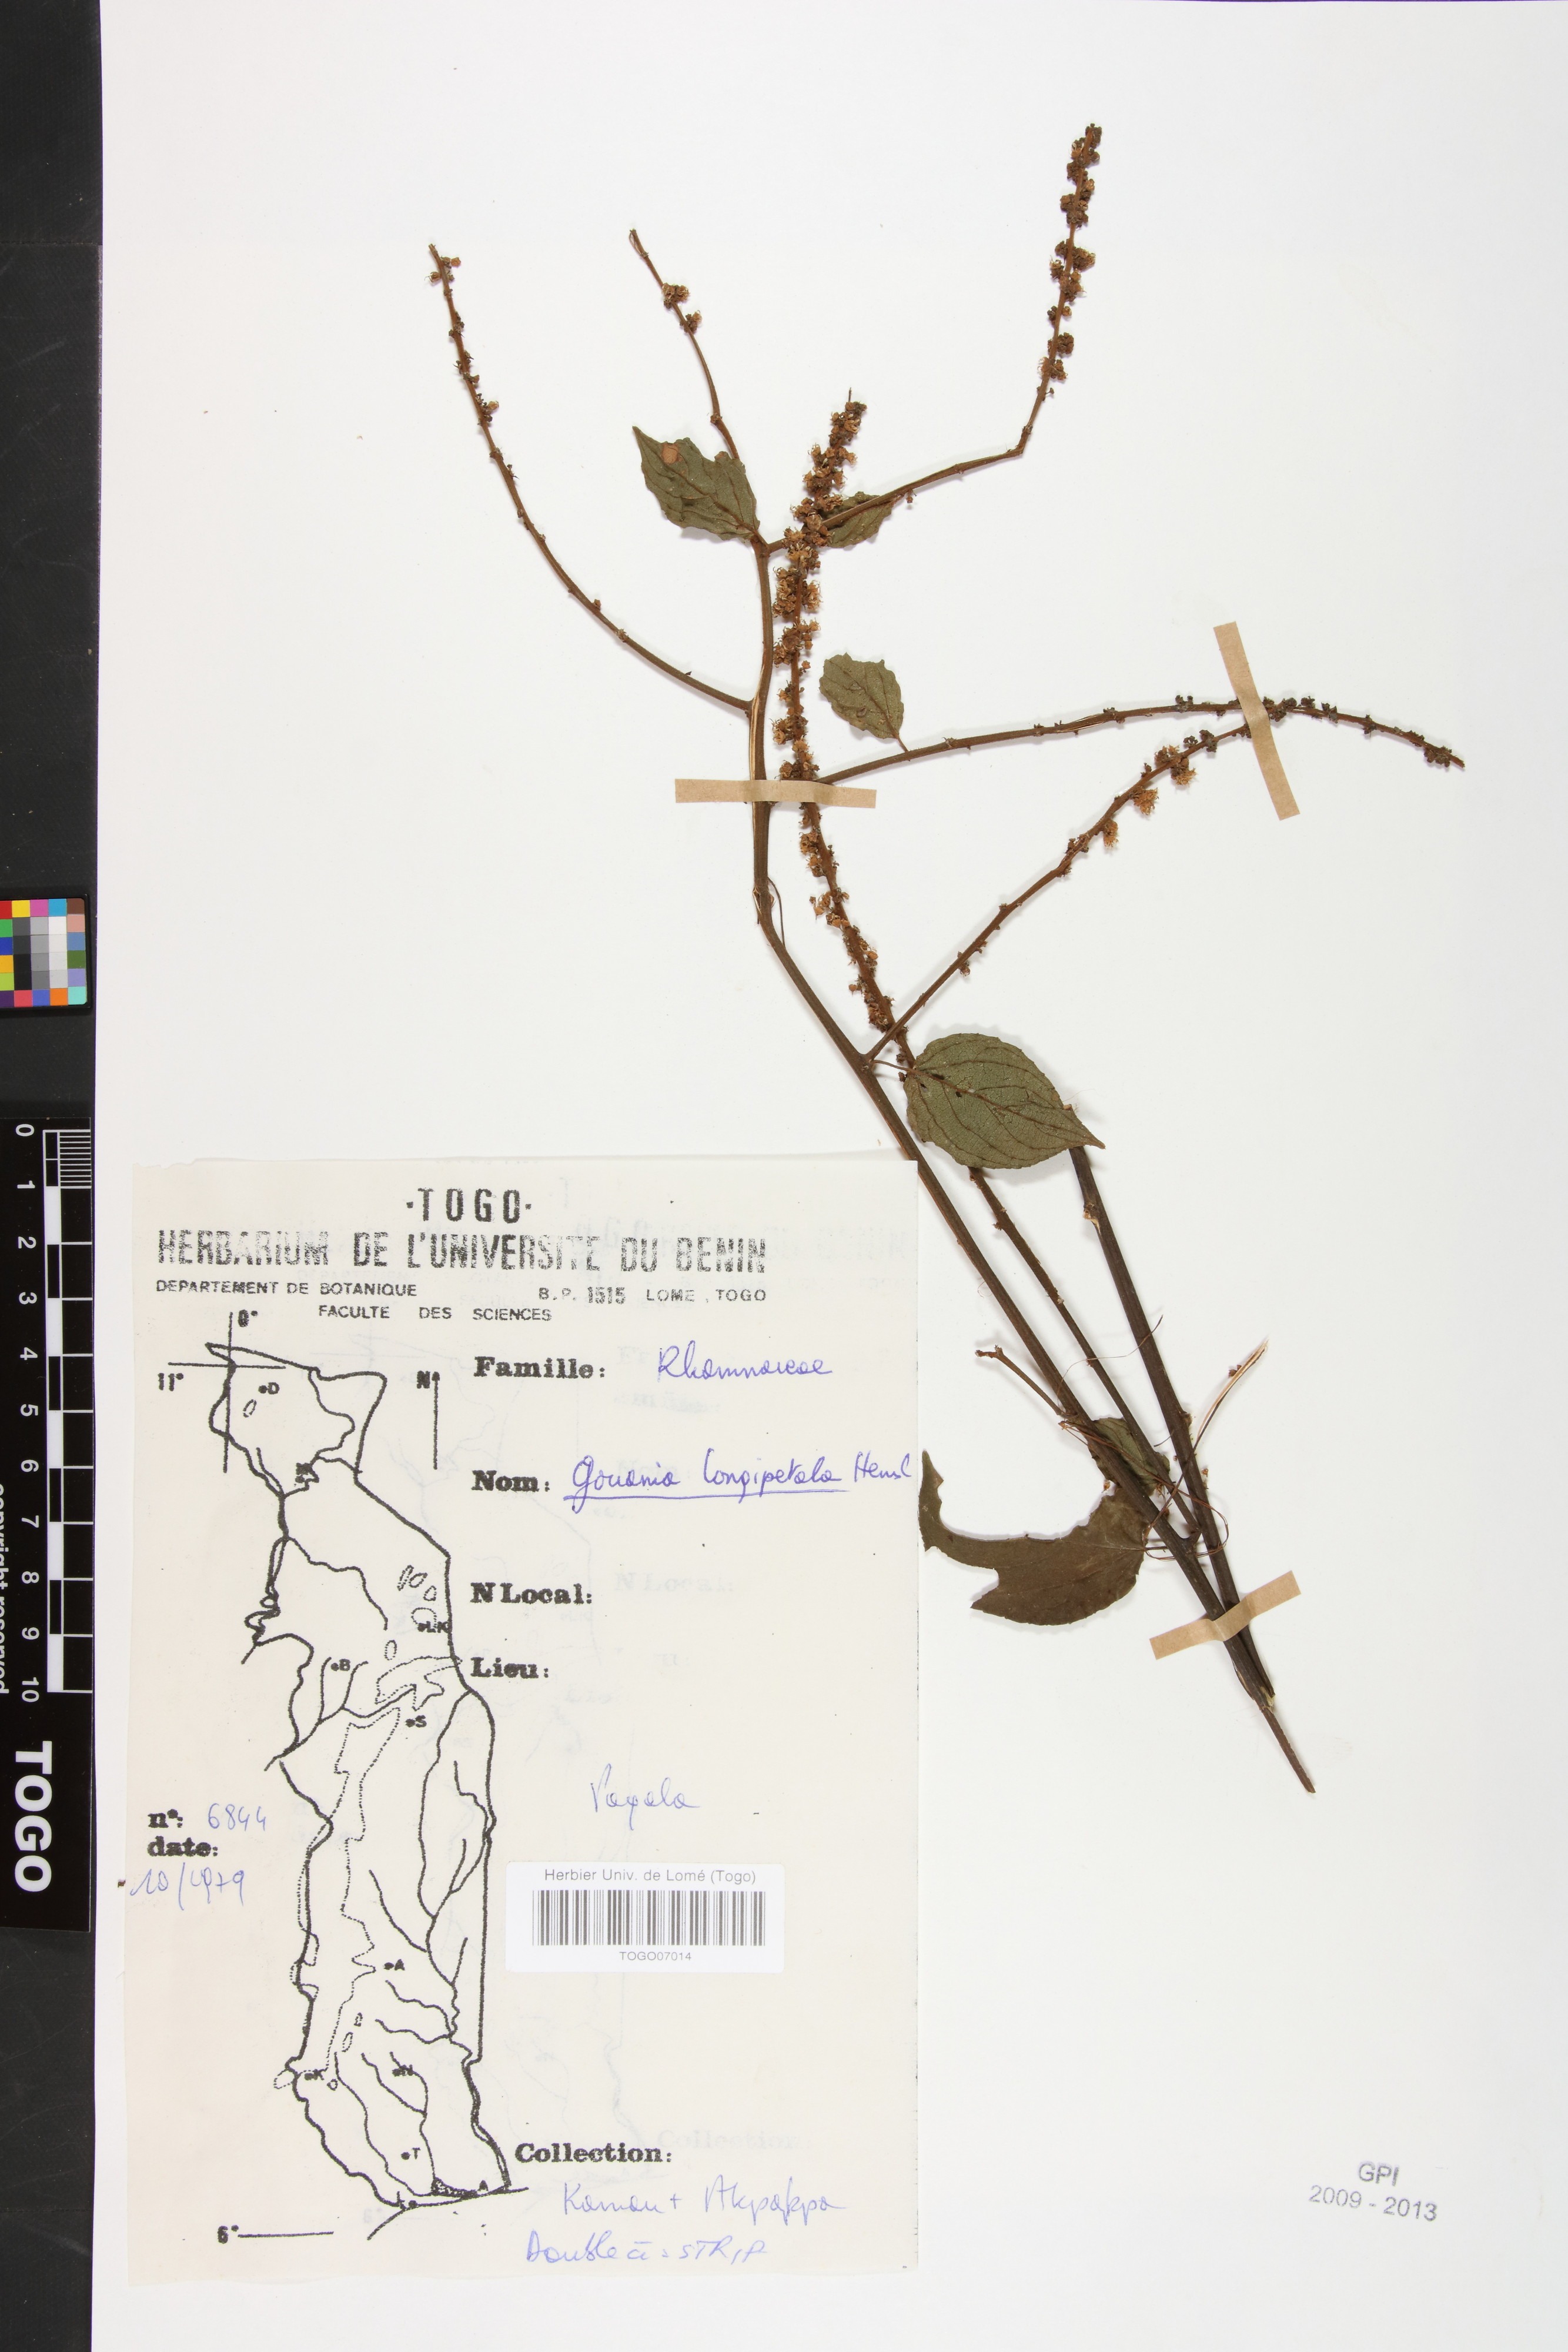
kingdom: Plantae
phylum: Tracheophyta
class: Magnoliopsida
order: Rosales
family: Rhamnaceae
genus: Gouania
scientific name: Gouania longipetala
